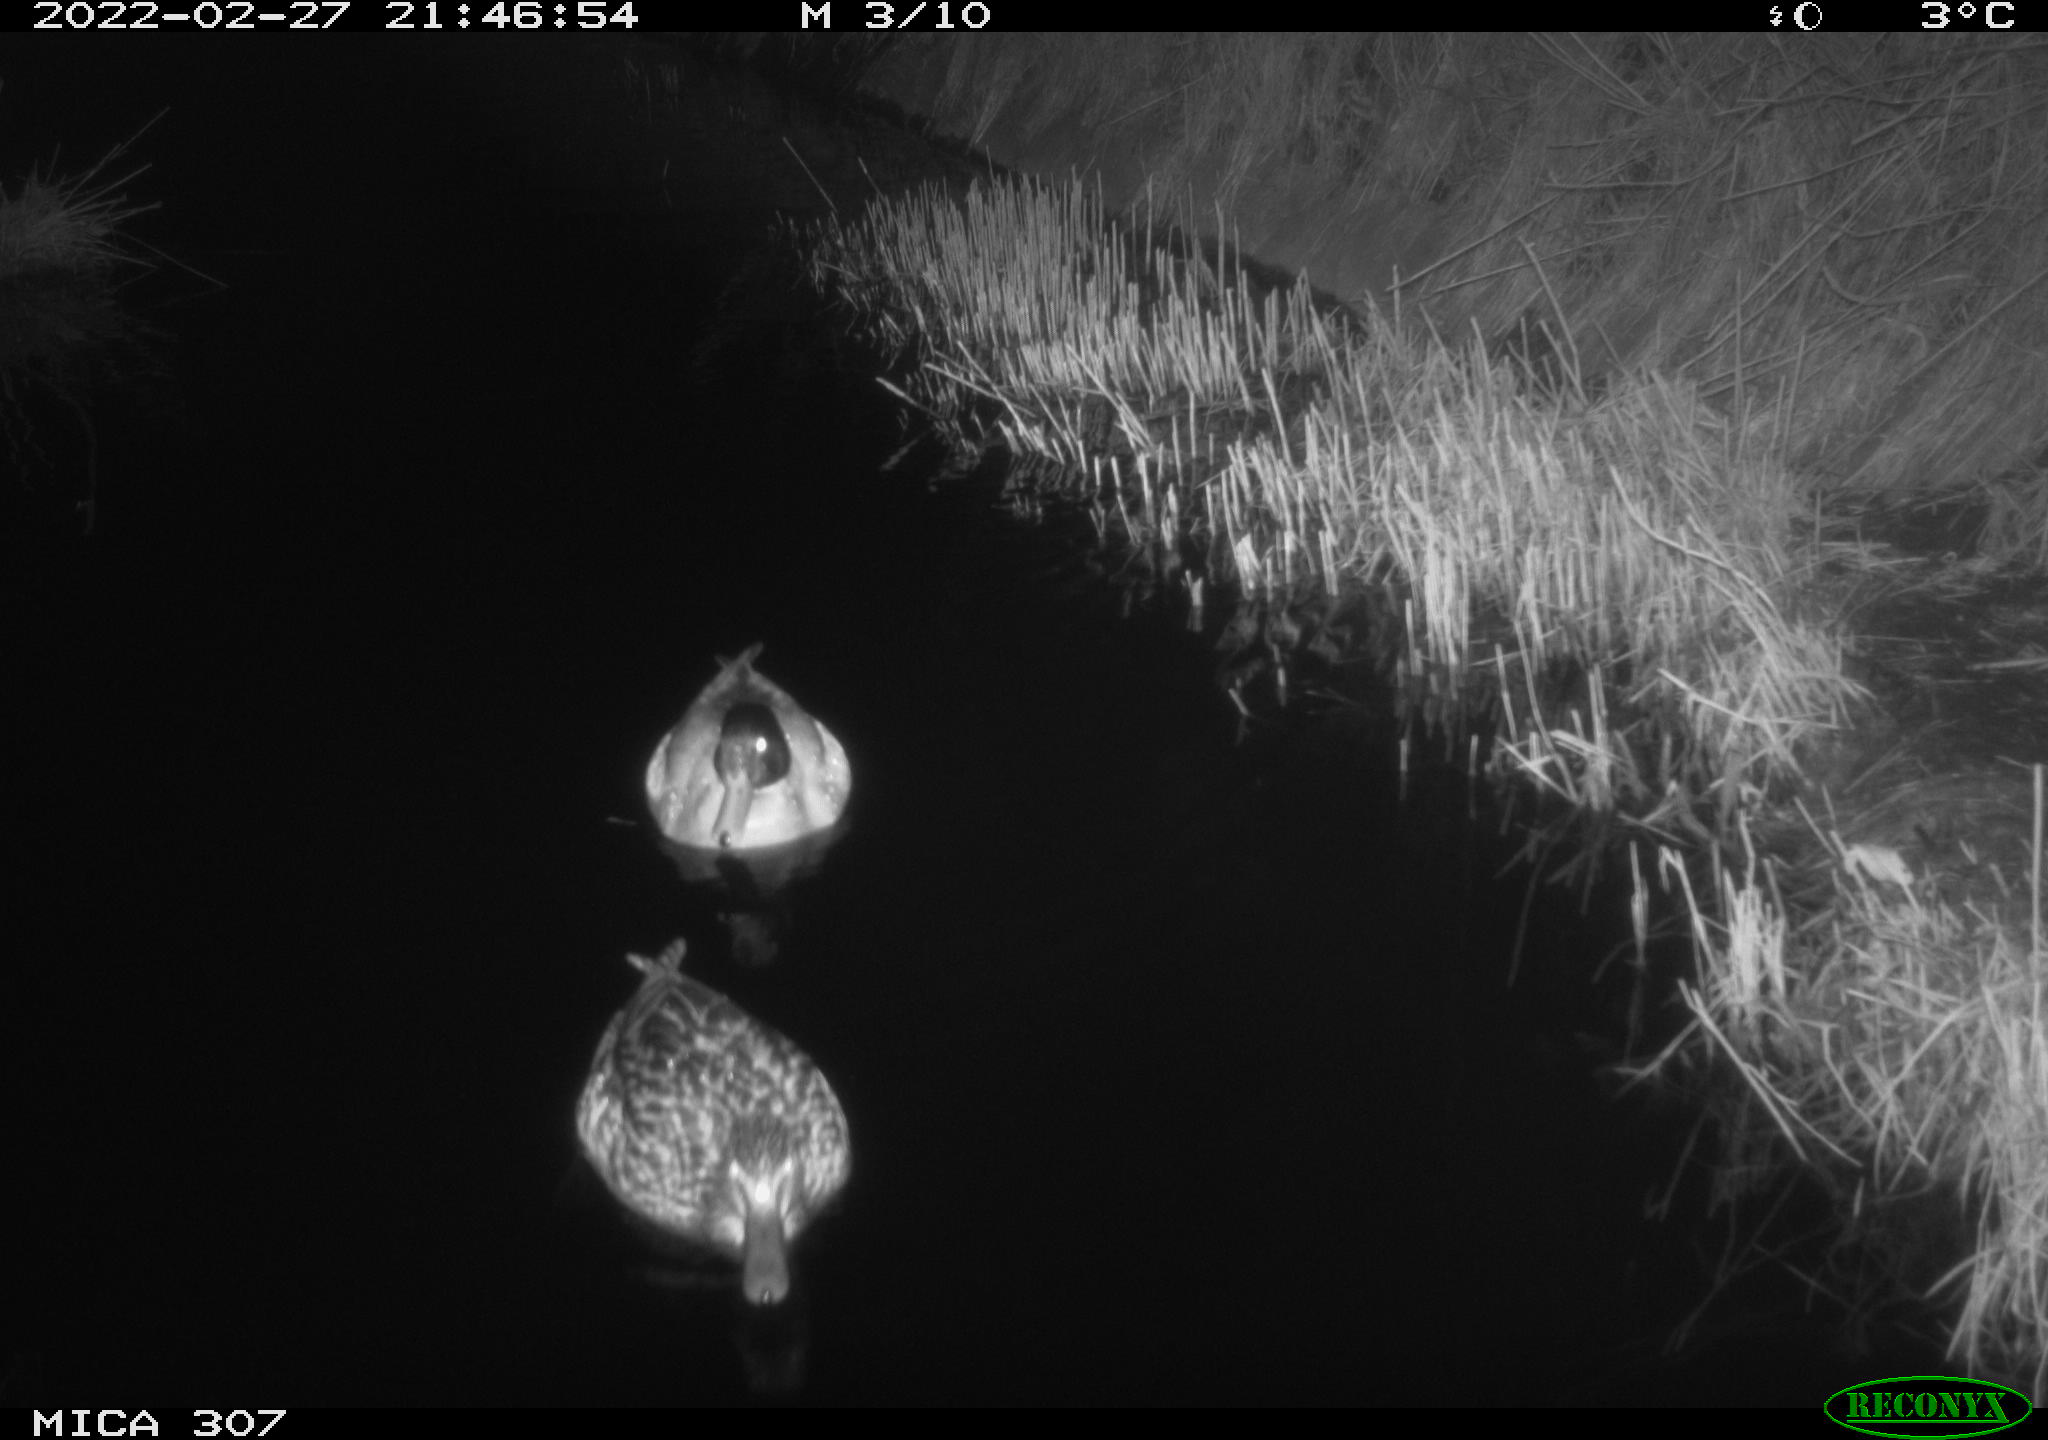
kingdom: Animalia
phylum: Chordata
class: Aves
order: Anseriformes
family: Anatidae
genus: Anas
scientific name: Anas platyrhynchos
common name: Mallard
